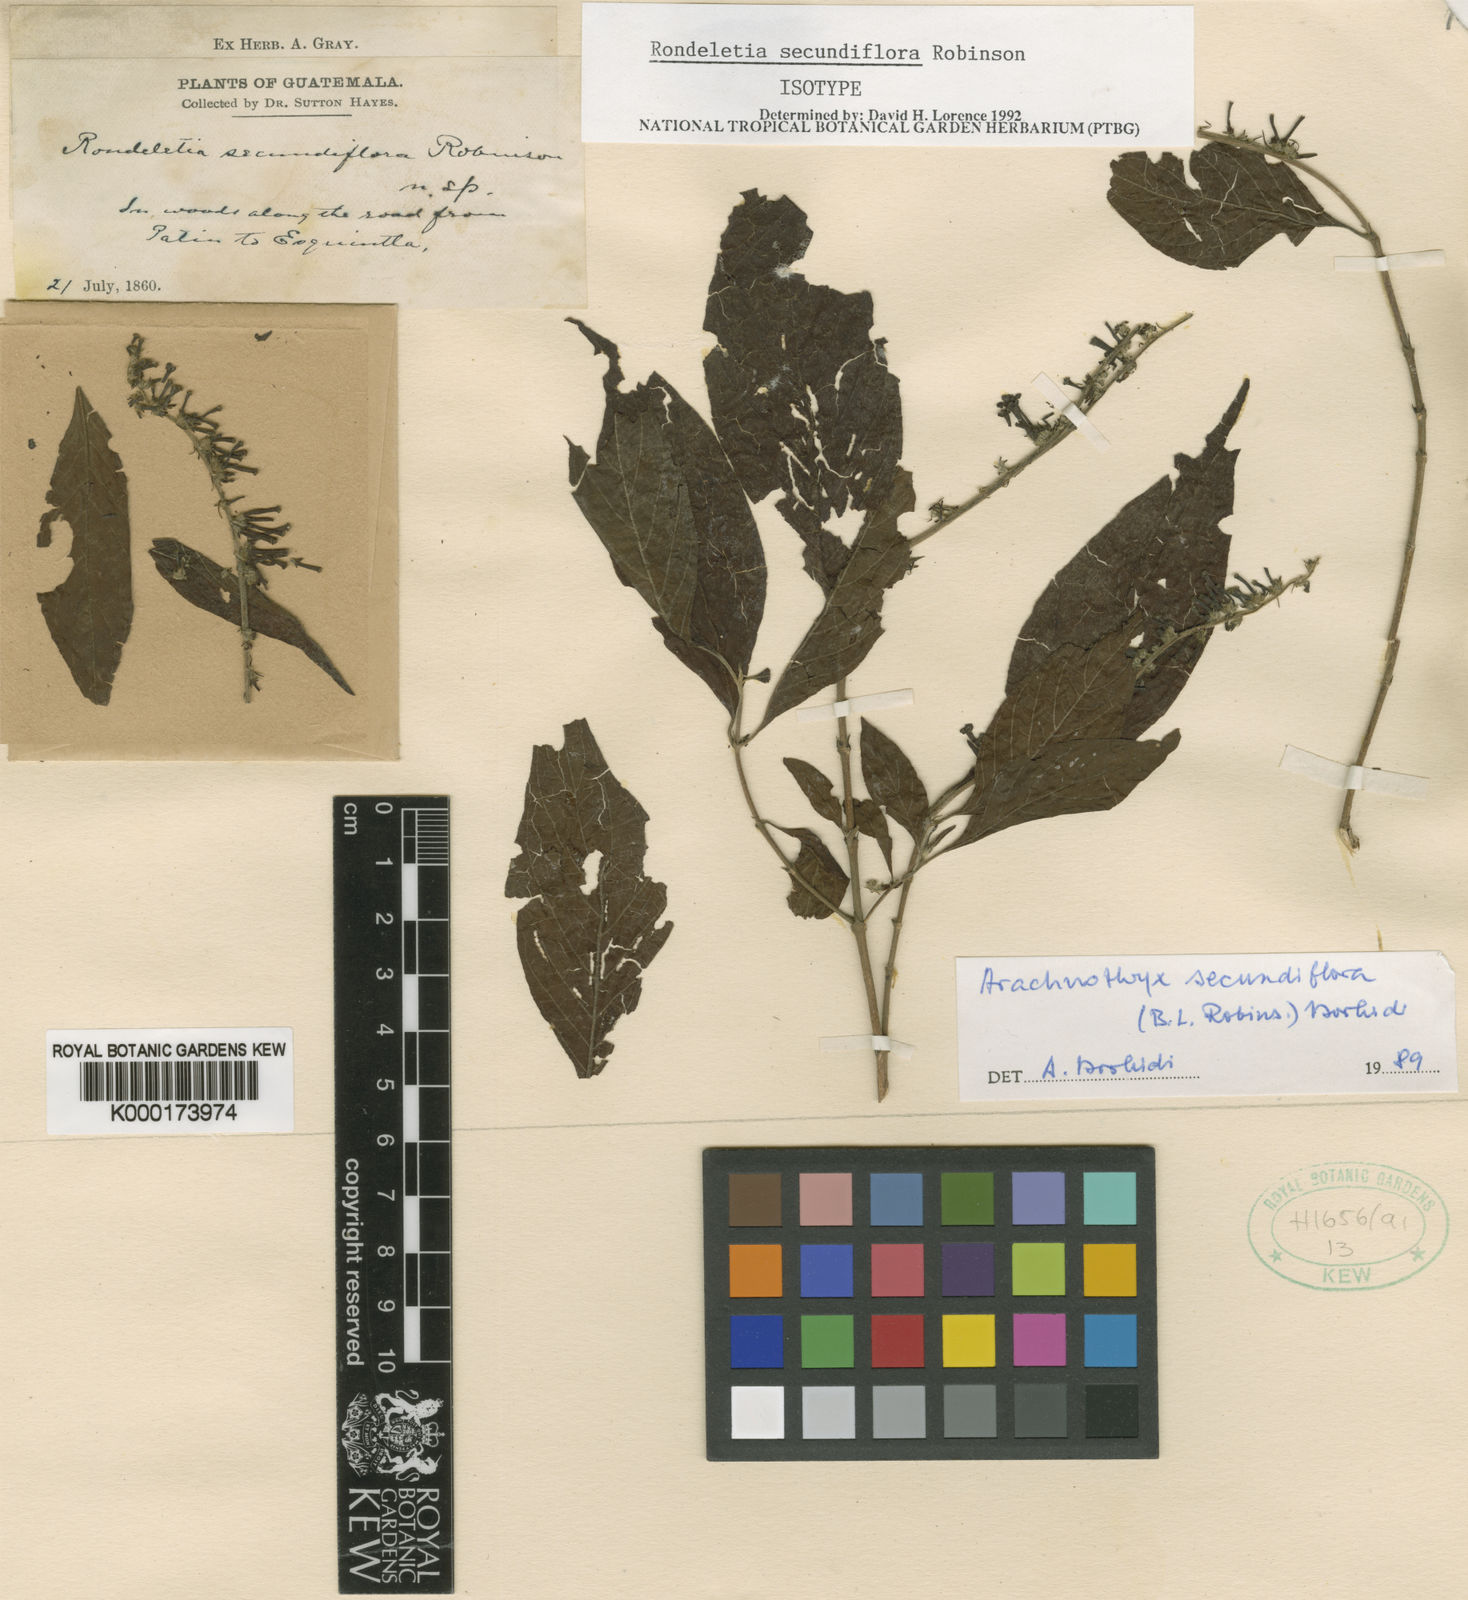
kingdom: Plantae
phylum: Tracheophyta
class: Magnoliopsida
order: Gentianales
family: Rubiaceae
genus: Arachnothryx
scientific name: Arachnothryx secundiflora
